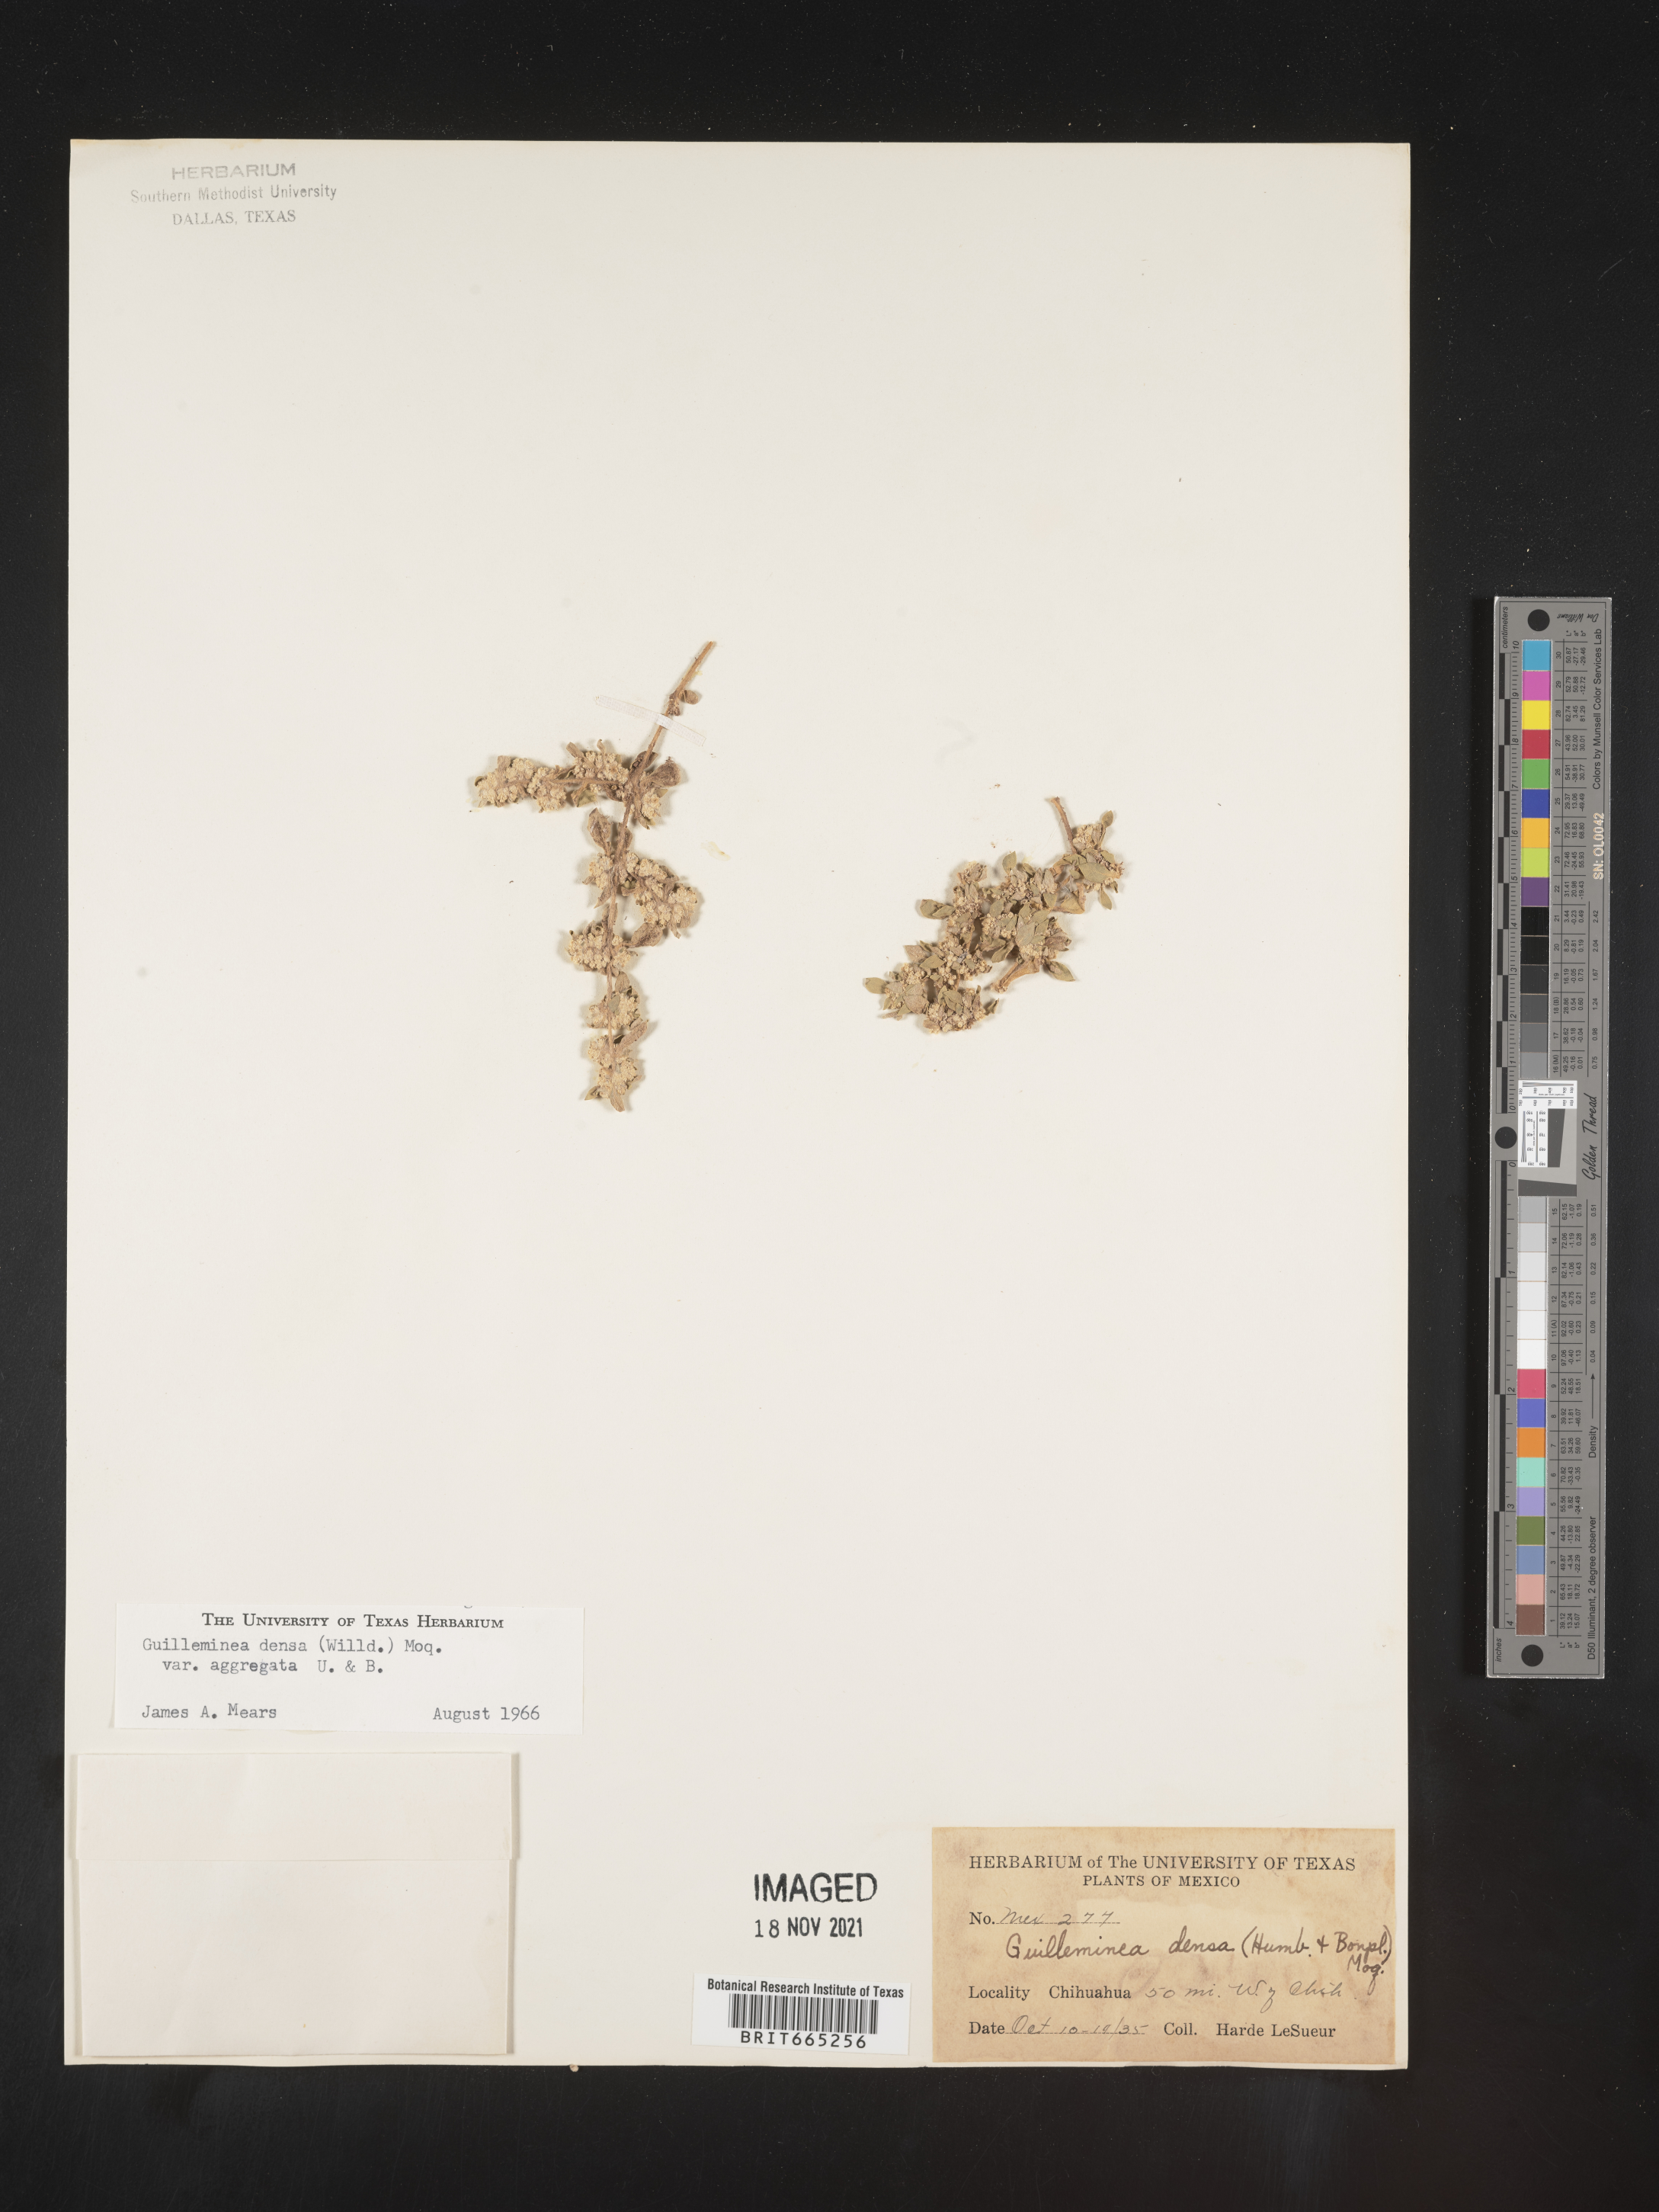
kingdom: Plantae
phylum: Tracheophyta
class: Magnoliopsida
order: Caryophyllales
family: Amaranthaceae
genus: Guilleminea
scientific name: Guilleminea densa
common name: Small matweed
